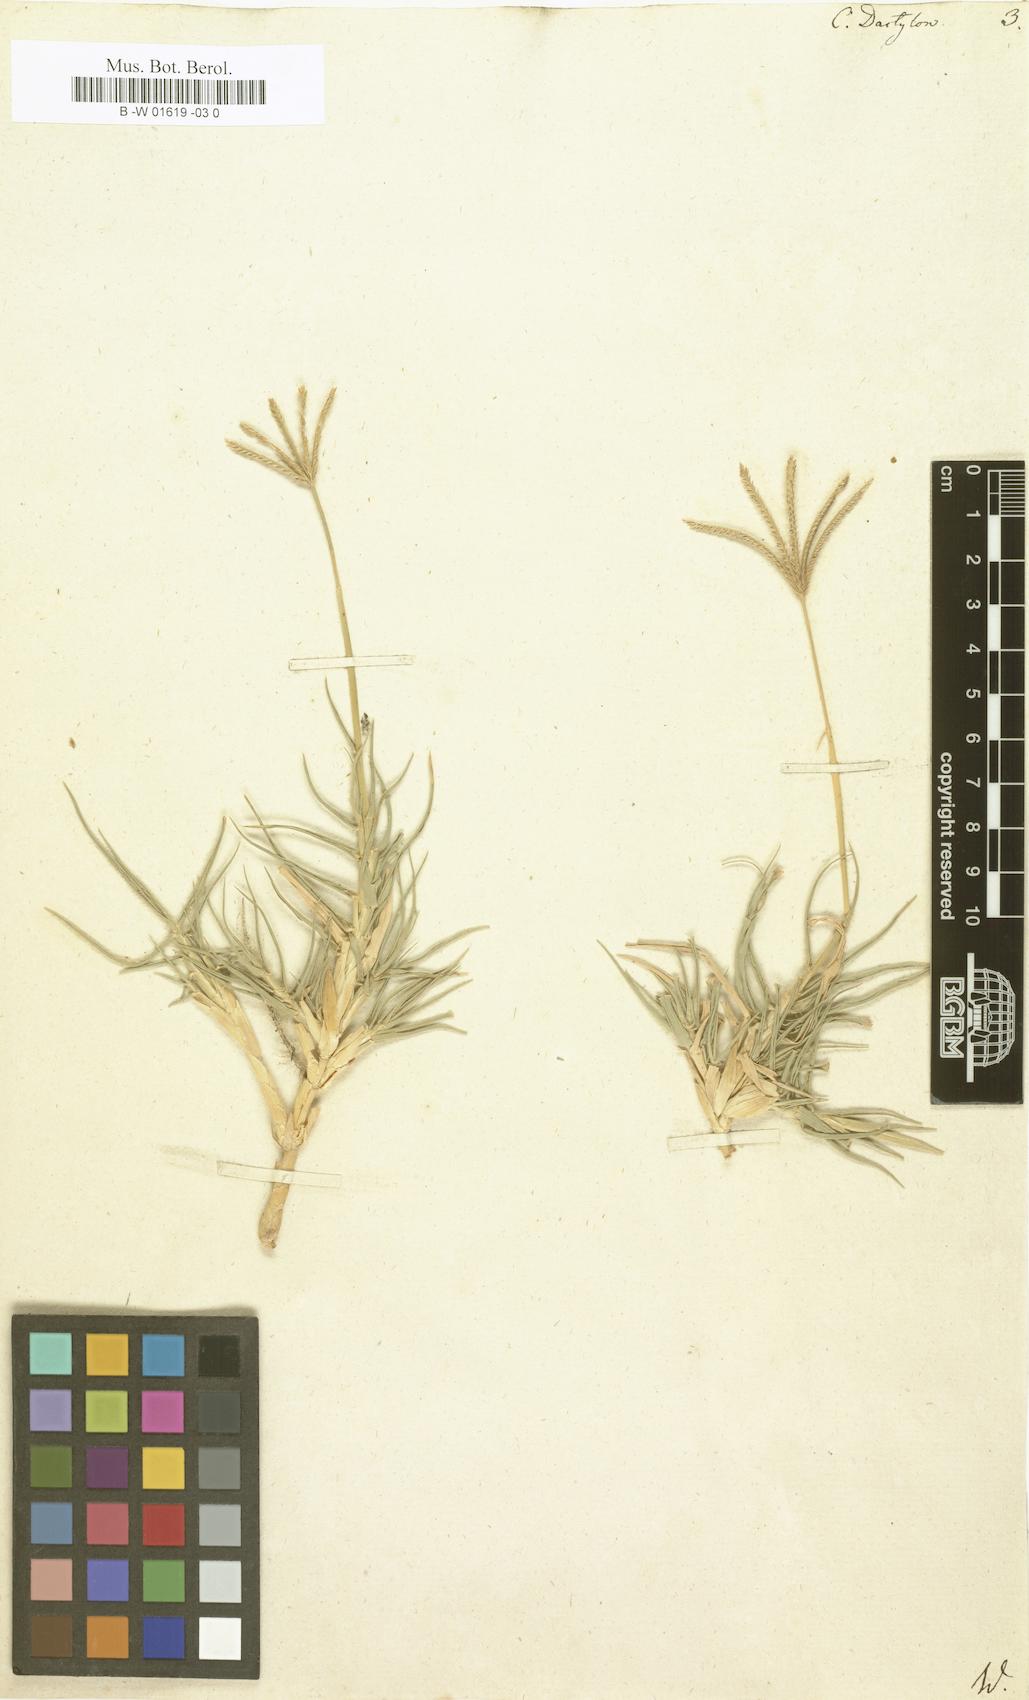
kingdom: Plantae
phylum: Tracheophyta
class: Liliopsida
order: Poales
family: Poaceae
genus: Cynodon
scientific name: Cynodon dactylon
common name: Bermuda grass
